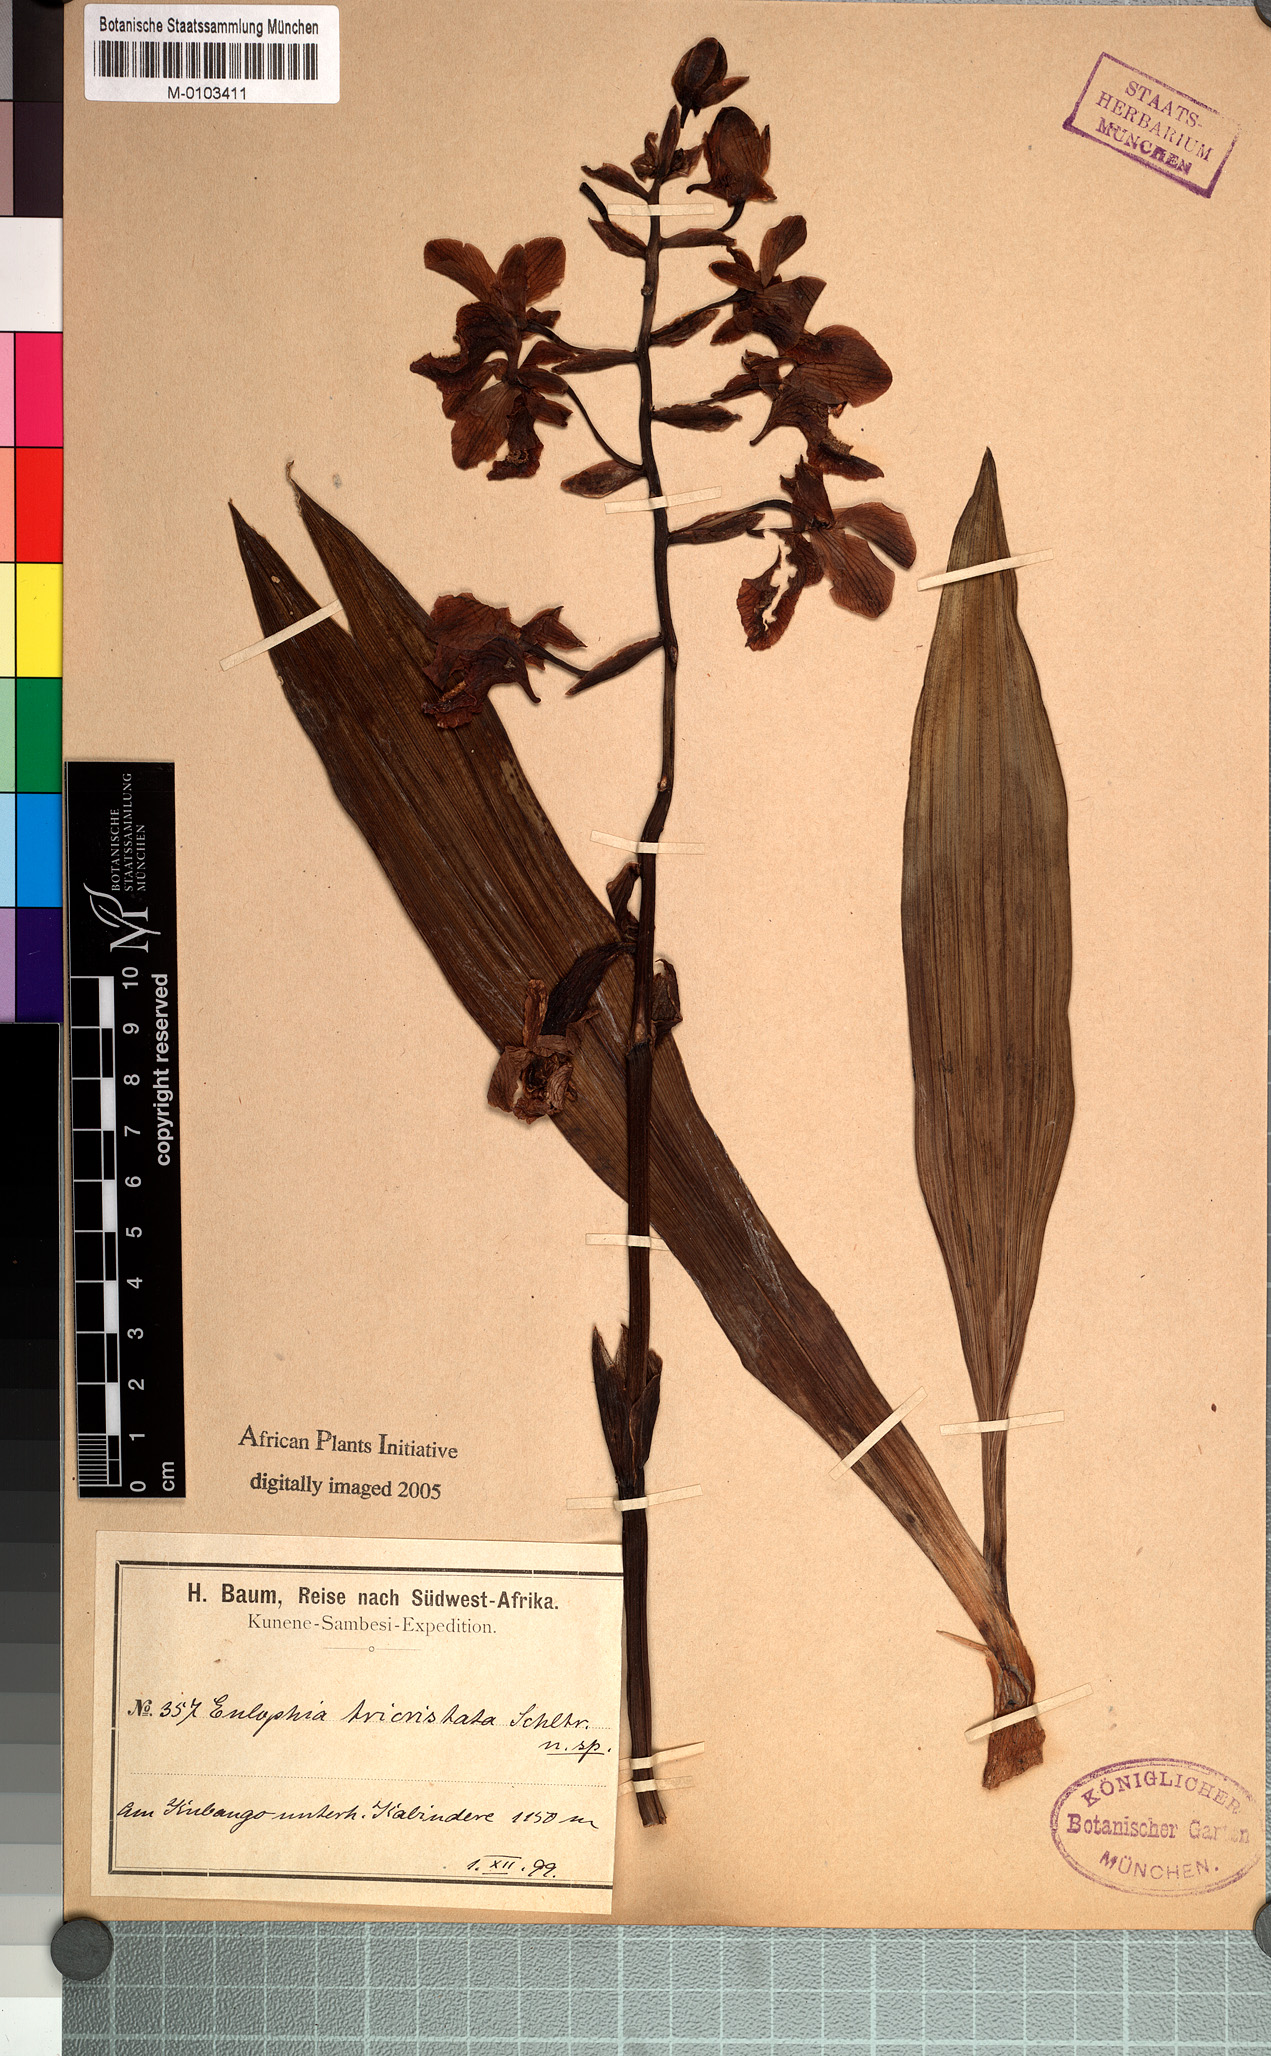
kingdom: Plantae
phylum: Tracheophyta
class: Liliopsida
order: Asparagales
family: Orchidaceae
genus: Eulophia
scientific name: Eulophia tricristata
